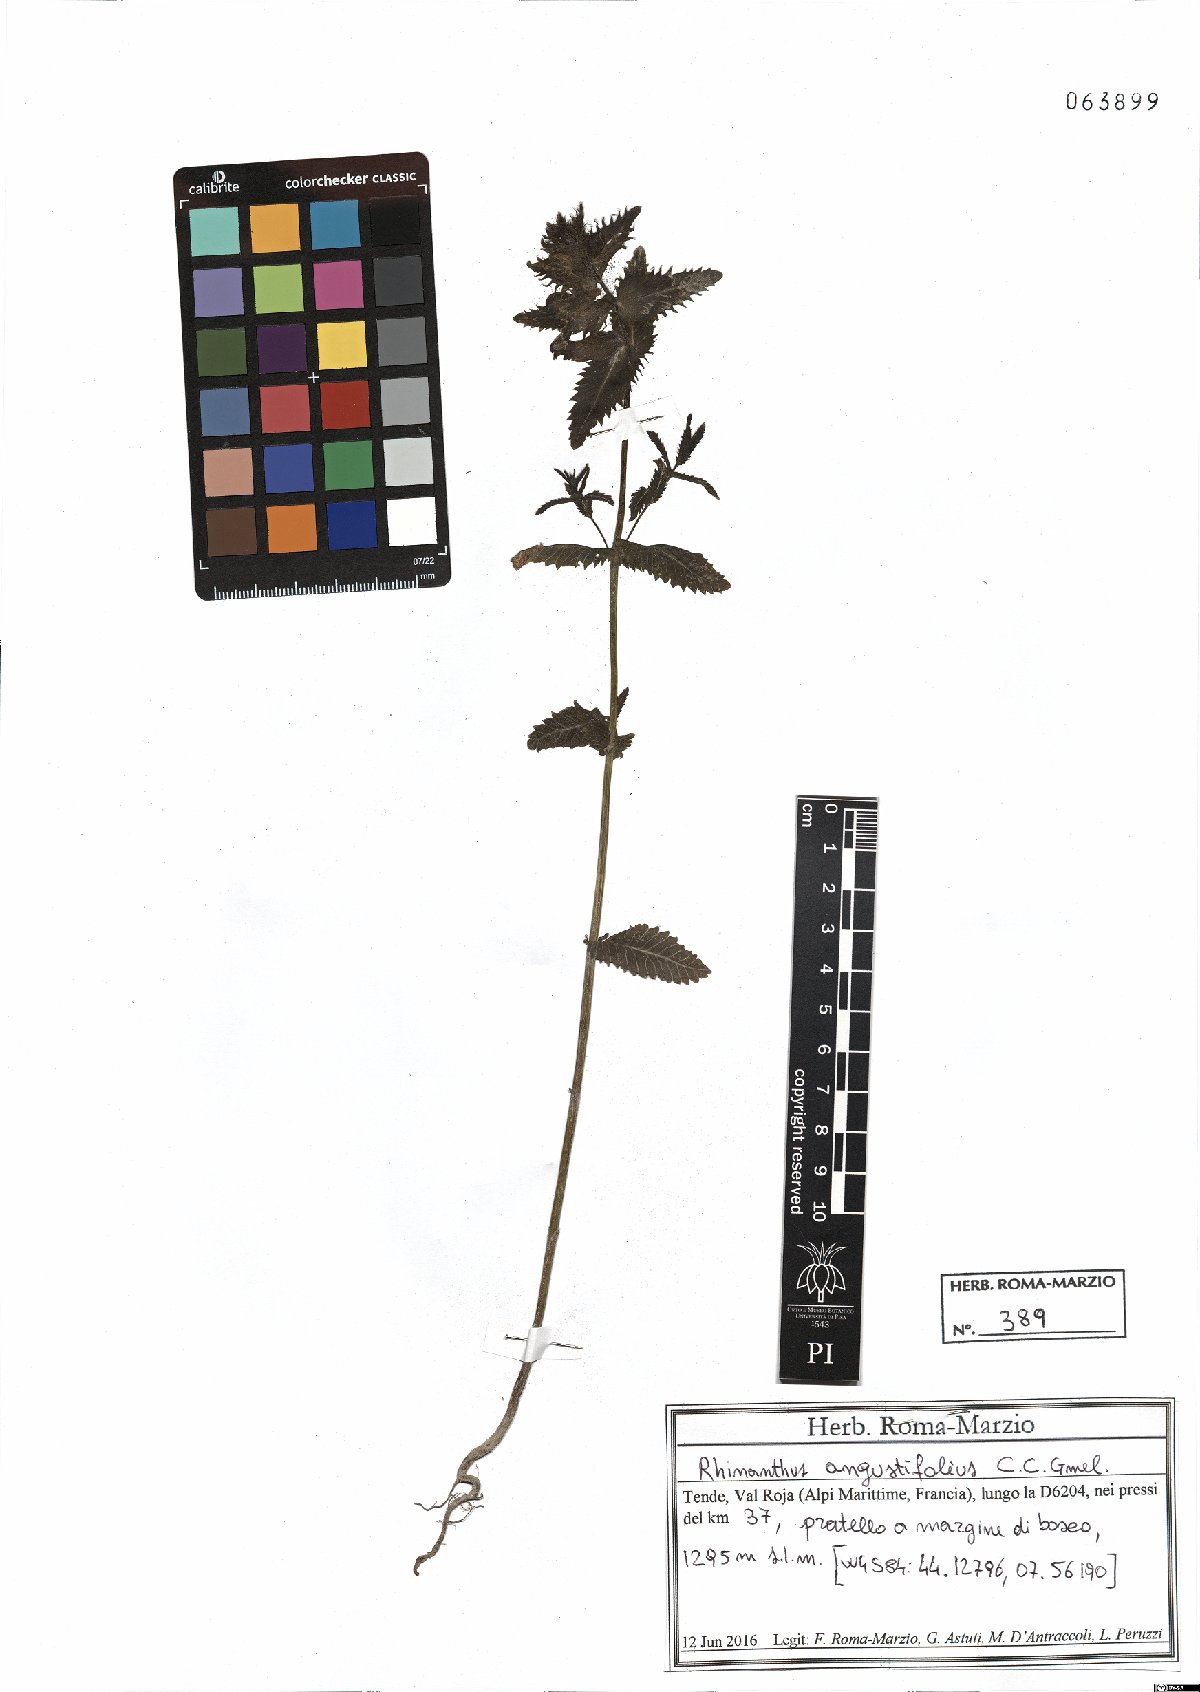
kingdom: Plantae
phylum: Tracheophyta
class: Magnoliopsida
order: Lamiales
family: Orobanchaceae
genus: Rhinanthus
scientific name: Rhinanthus
